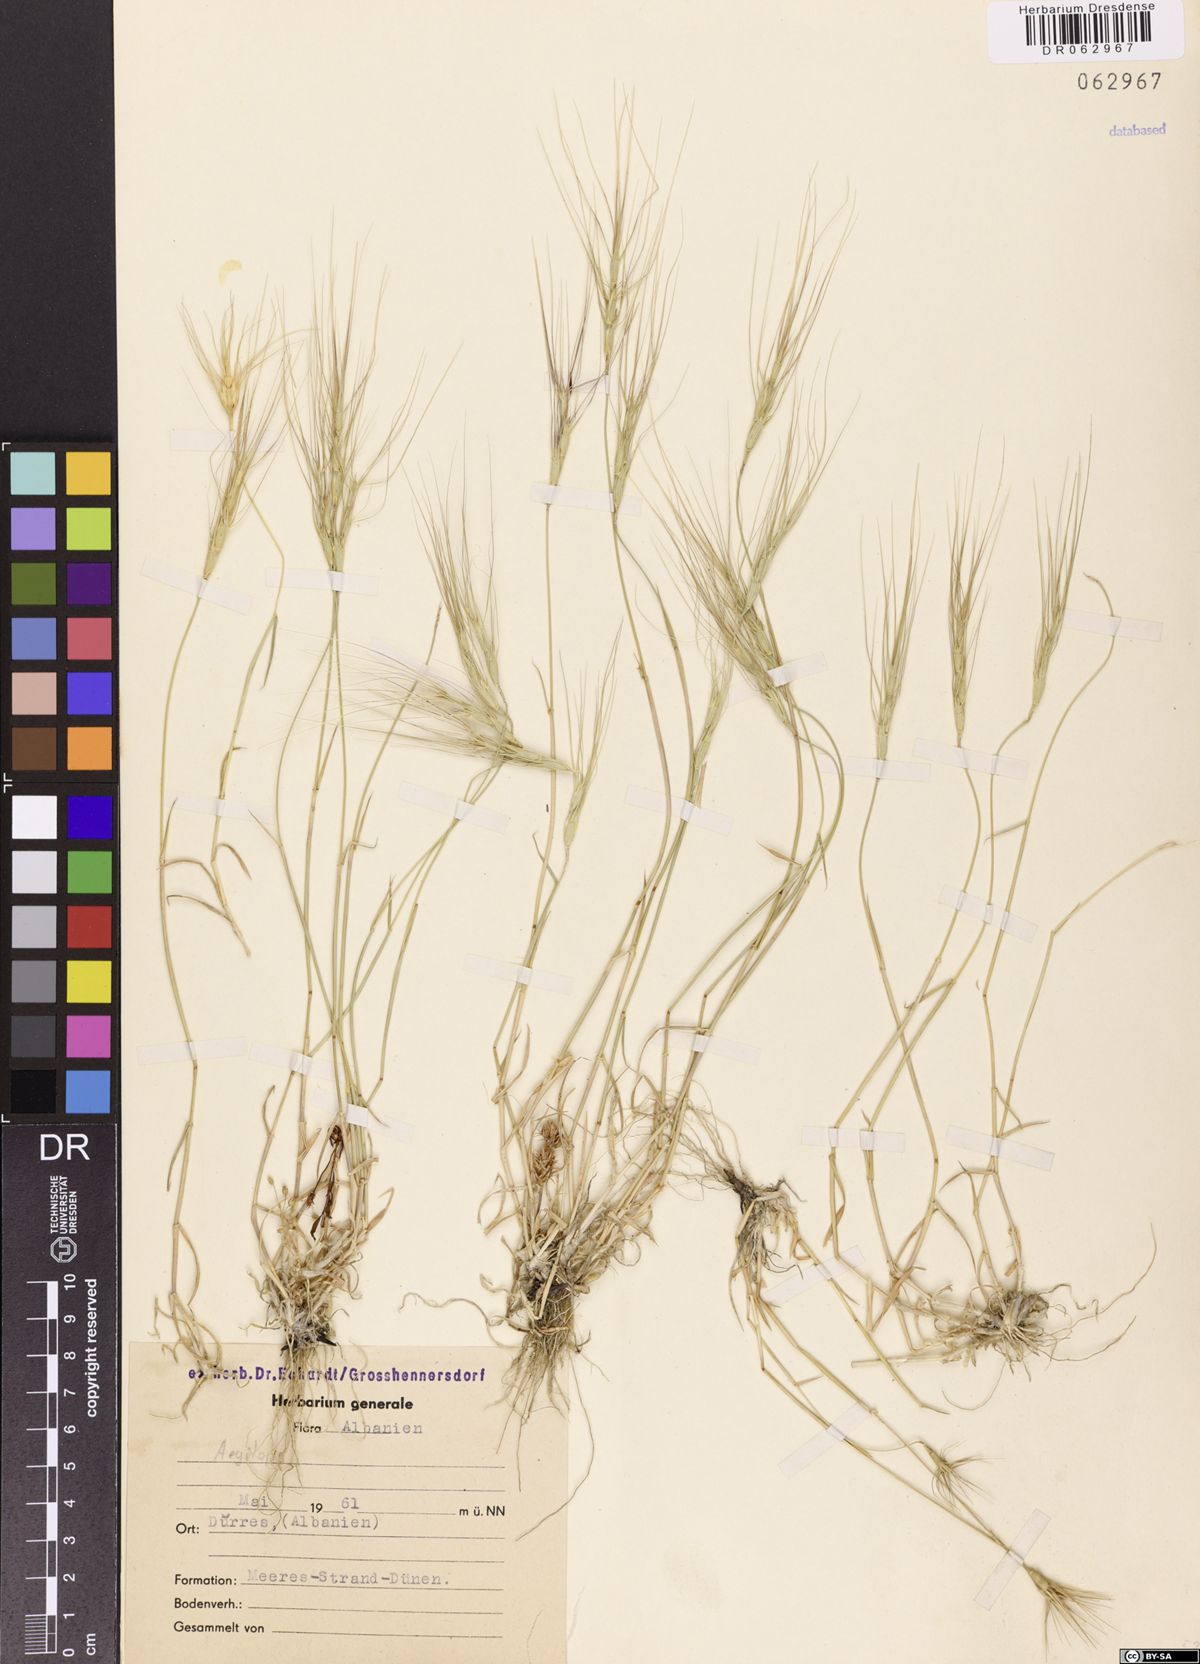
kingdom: Plantae
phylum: Tracheophyta
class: Liliopsida
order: Poales
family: Poaceae
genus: Aegilops
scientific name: Aegilops
